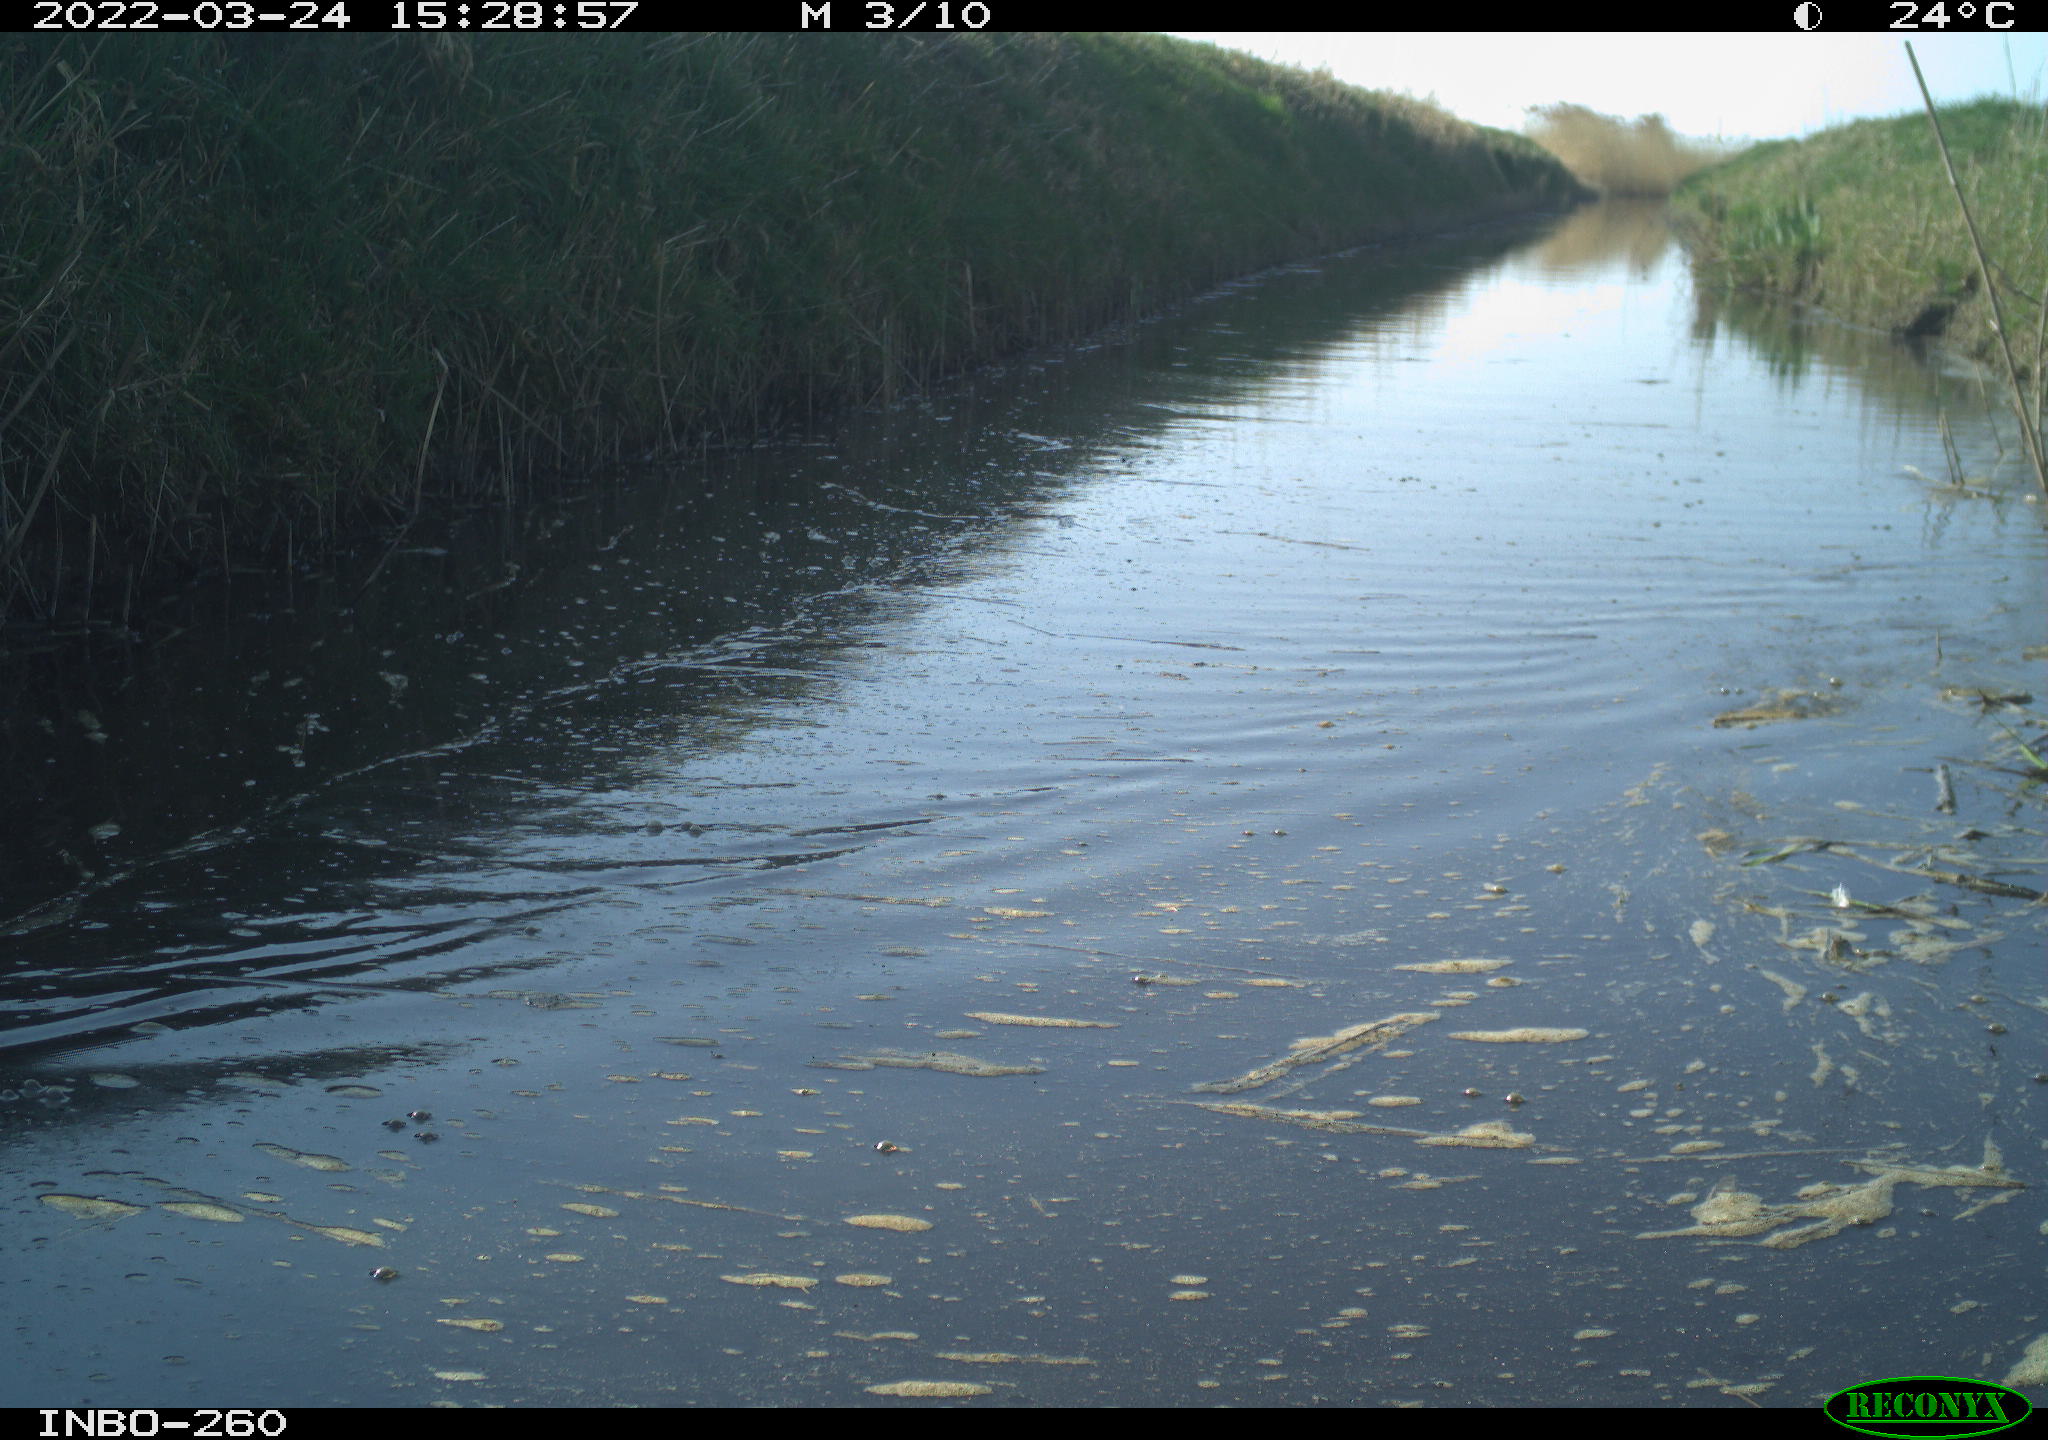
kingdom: Animalia
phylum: Chordata
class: Aves
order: Gruiformes
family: Rallidae
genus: Fulica
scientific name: Fulica atra
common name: Eurasian coot
